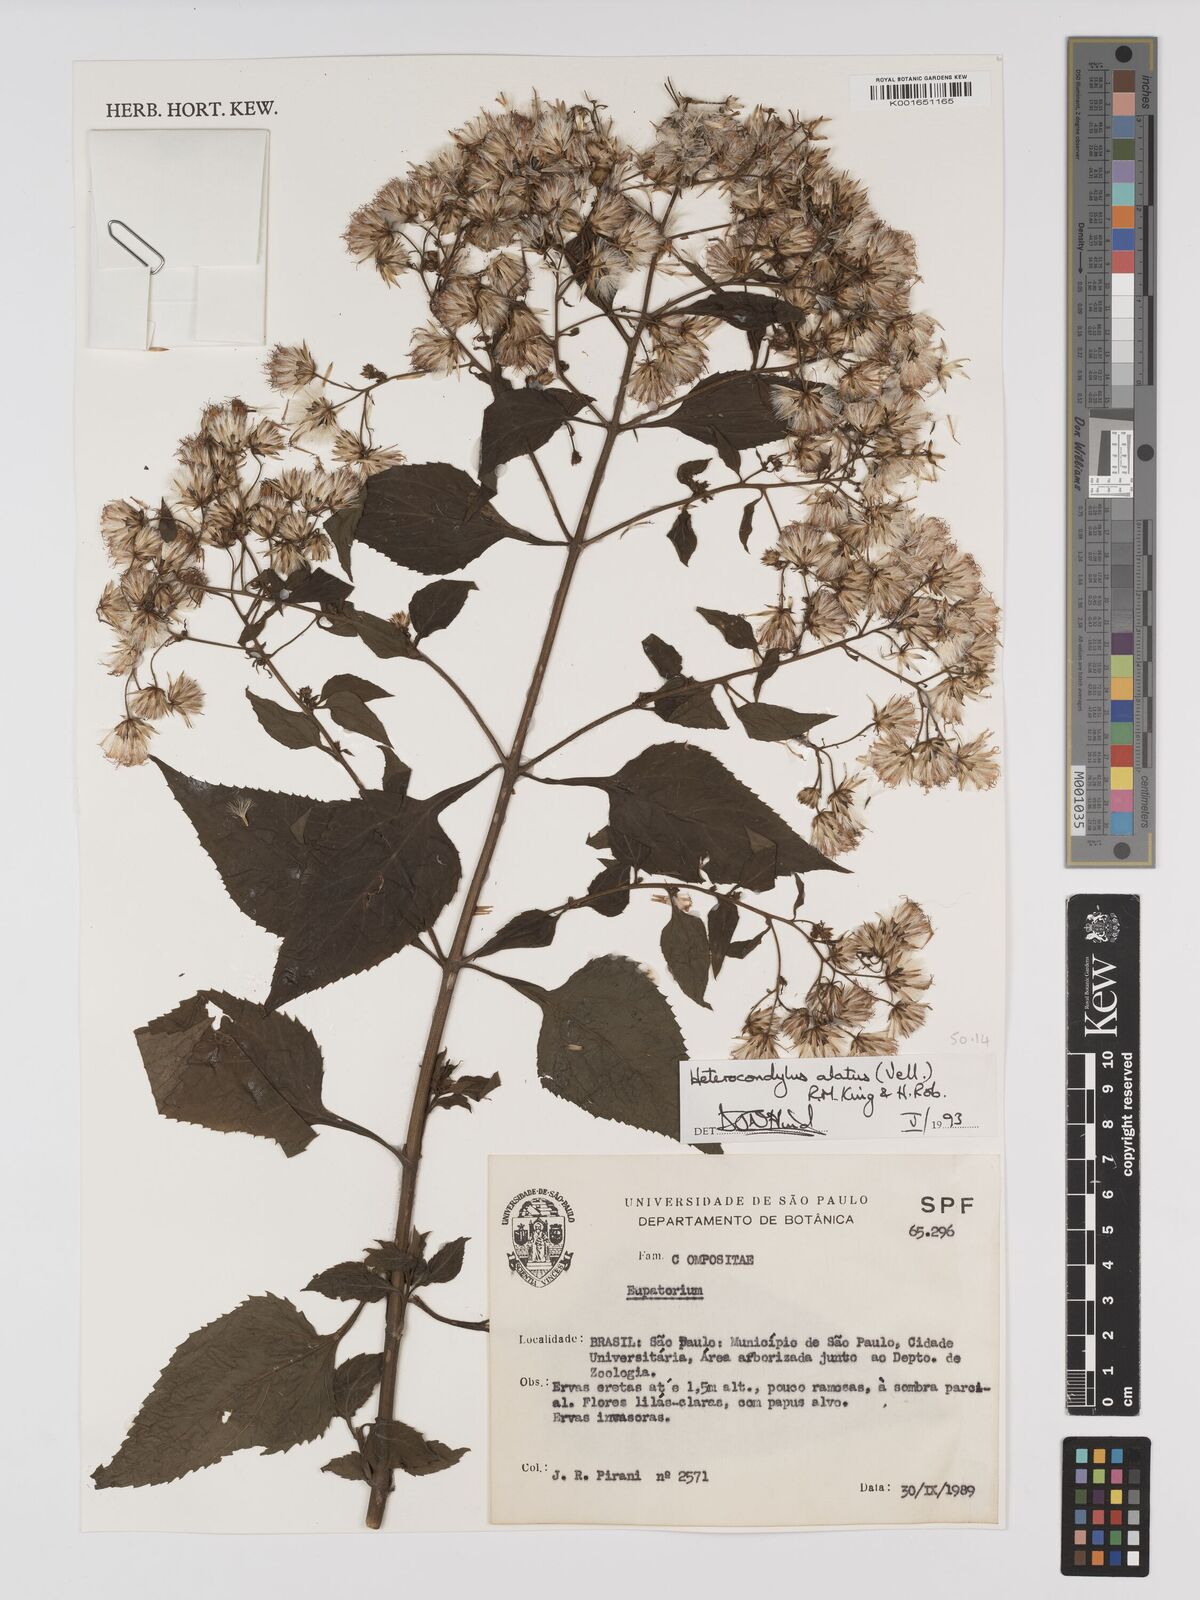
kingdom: Plantae
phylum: Tracheophyta
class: Magnoliopsida
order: Asterales
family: Asteraceae
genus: Heterocondylus
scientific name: Heterocondylus alatus
